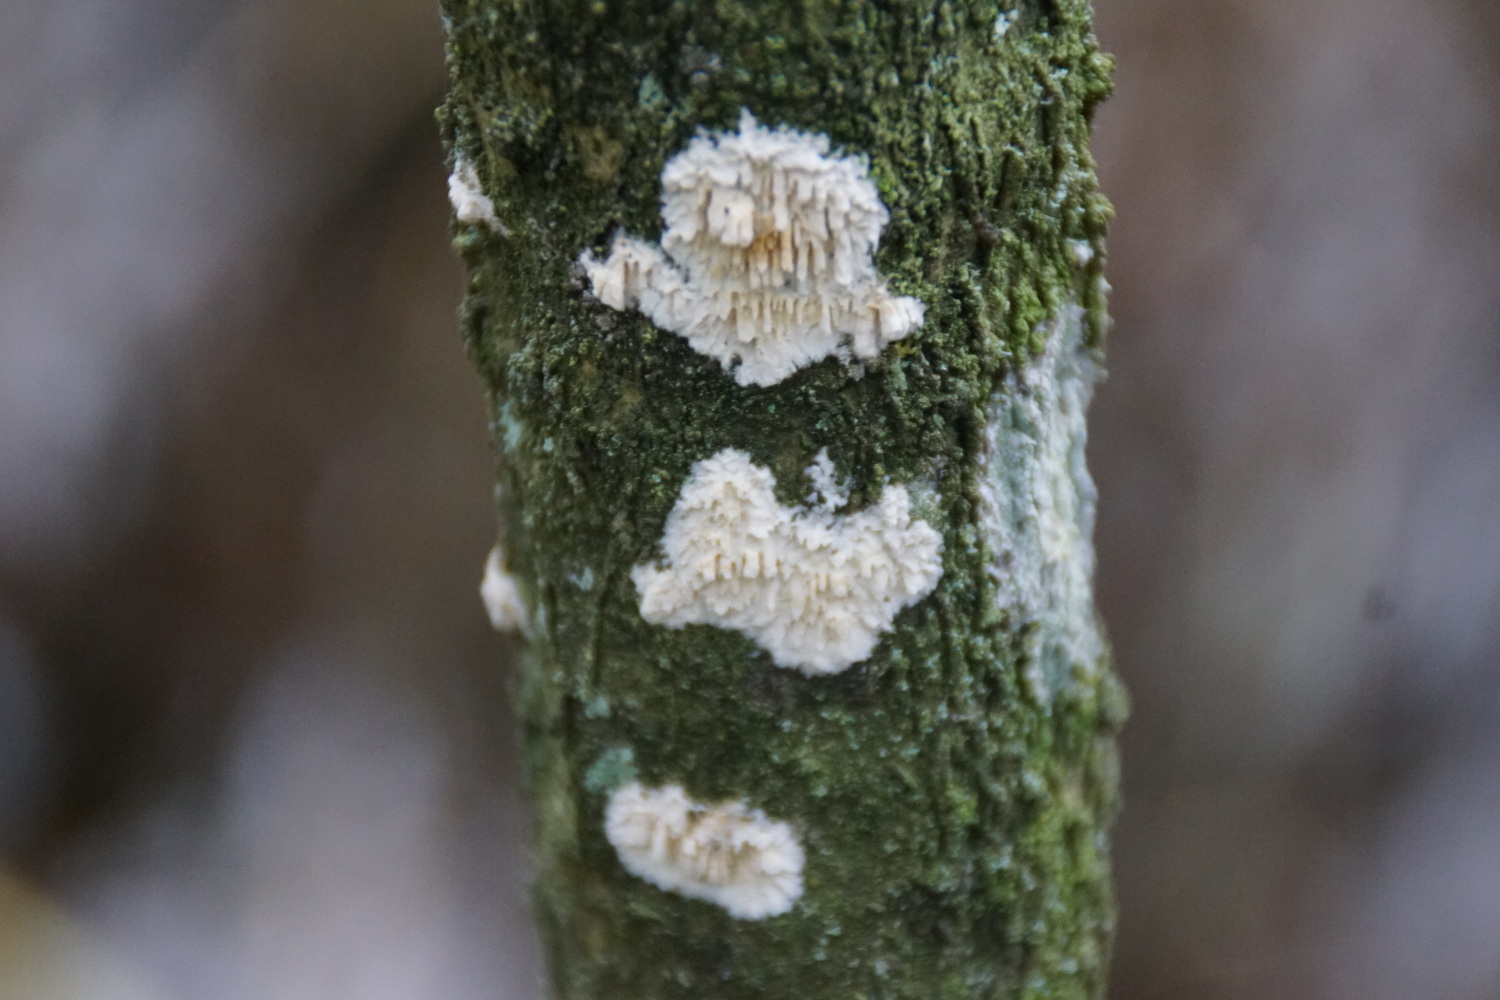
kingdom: Fungi
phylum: Basidiomycota
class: Agaricomycetes
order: Hymenochaetales
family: Schizoporaceae
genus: Xylodon
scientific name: Xylodon radula
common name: grovtandet kalkskind
